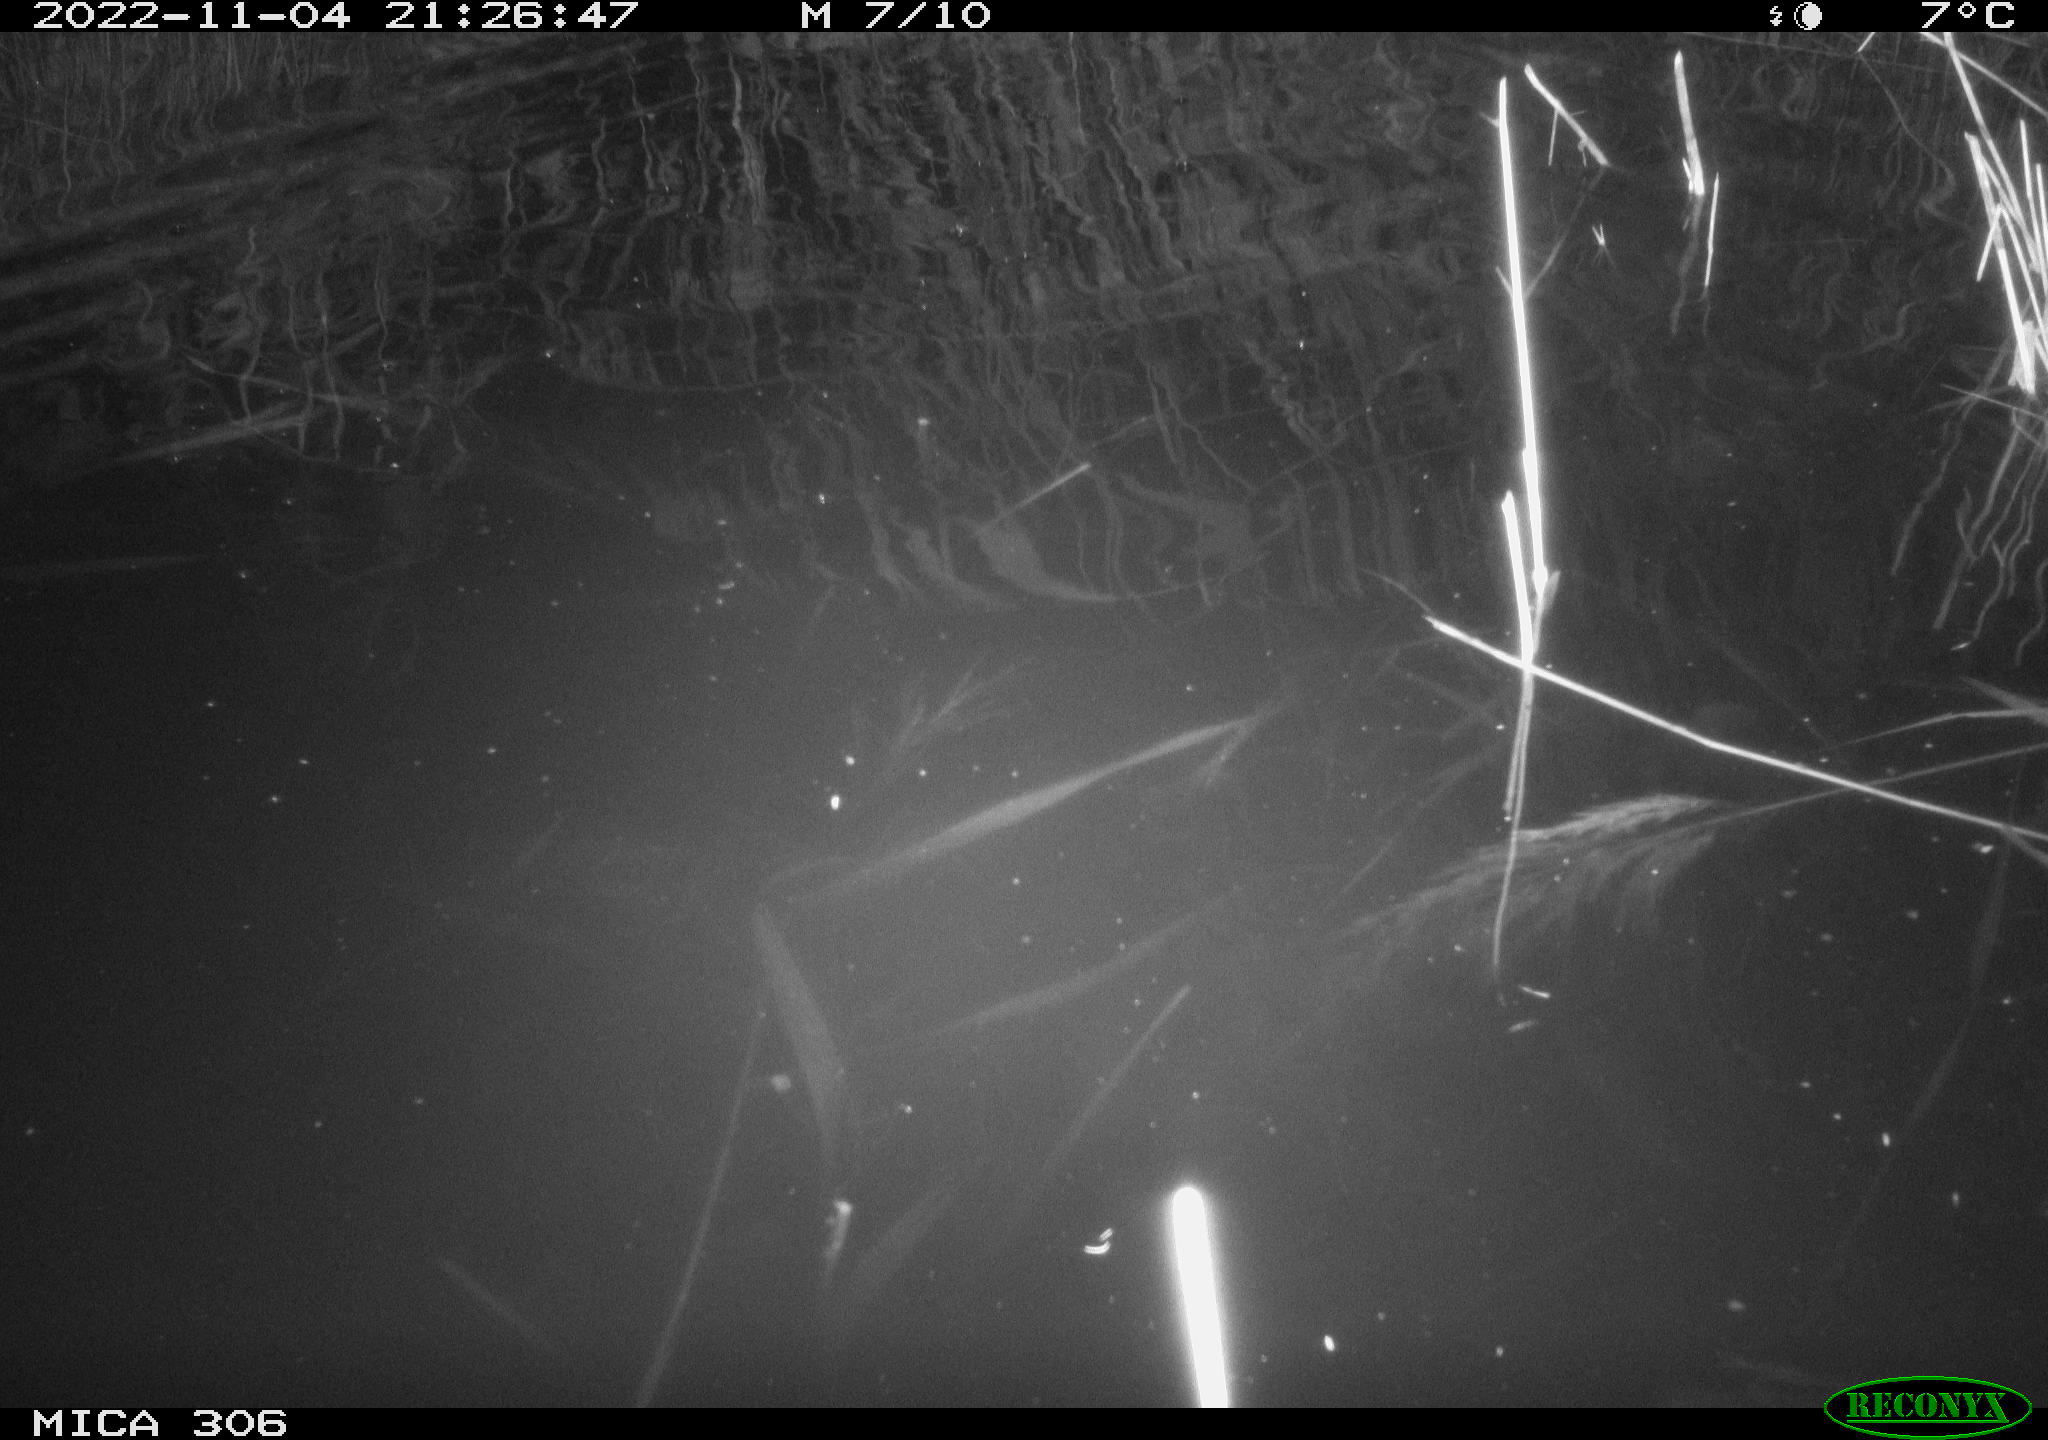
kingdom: Animalia
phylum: Chordata
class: Mammalia
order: Rodentia
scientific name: Rodentia
